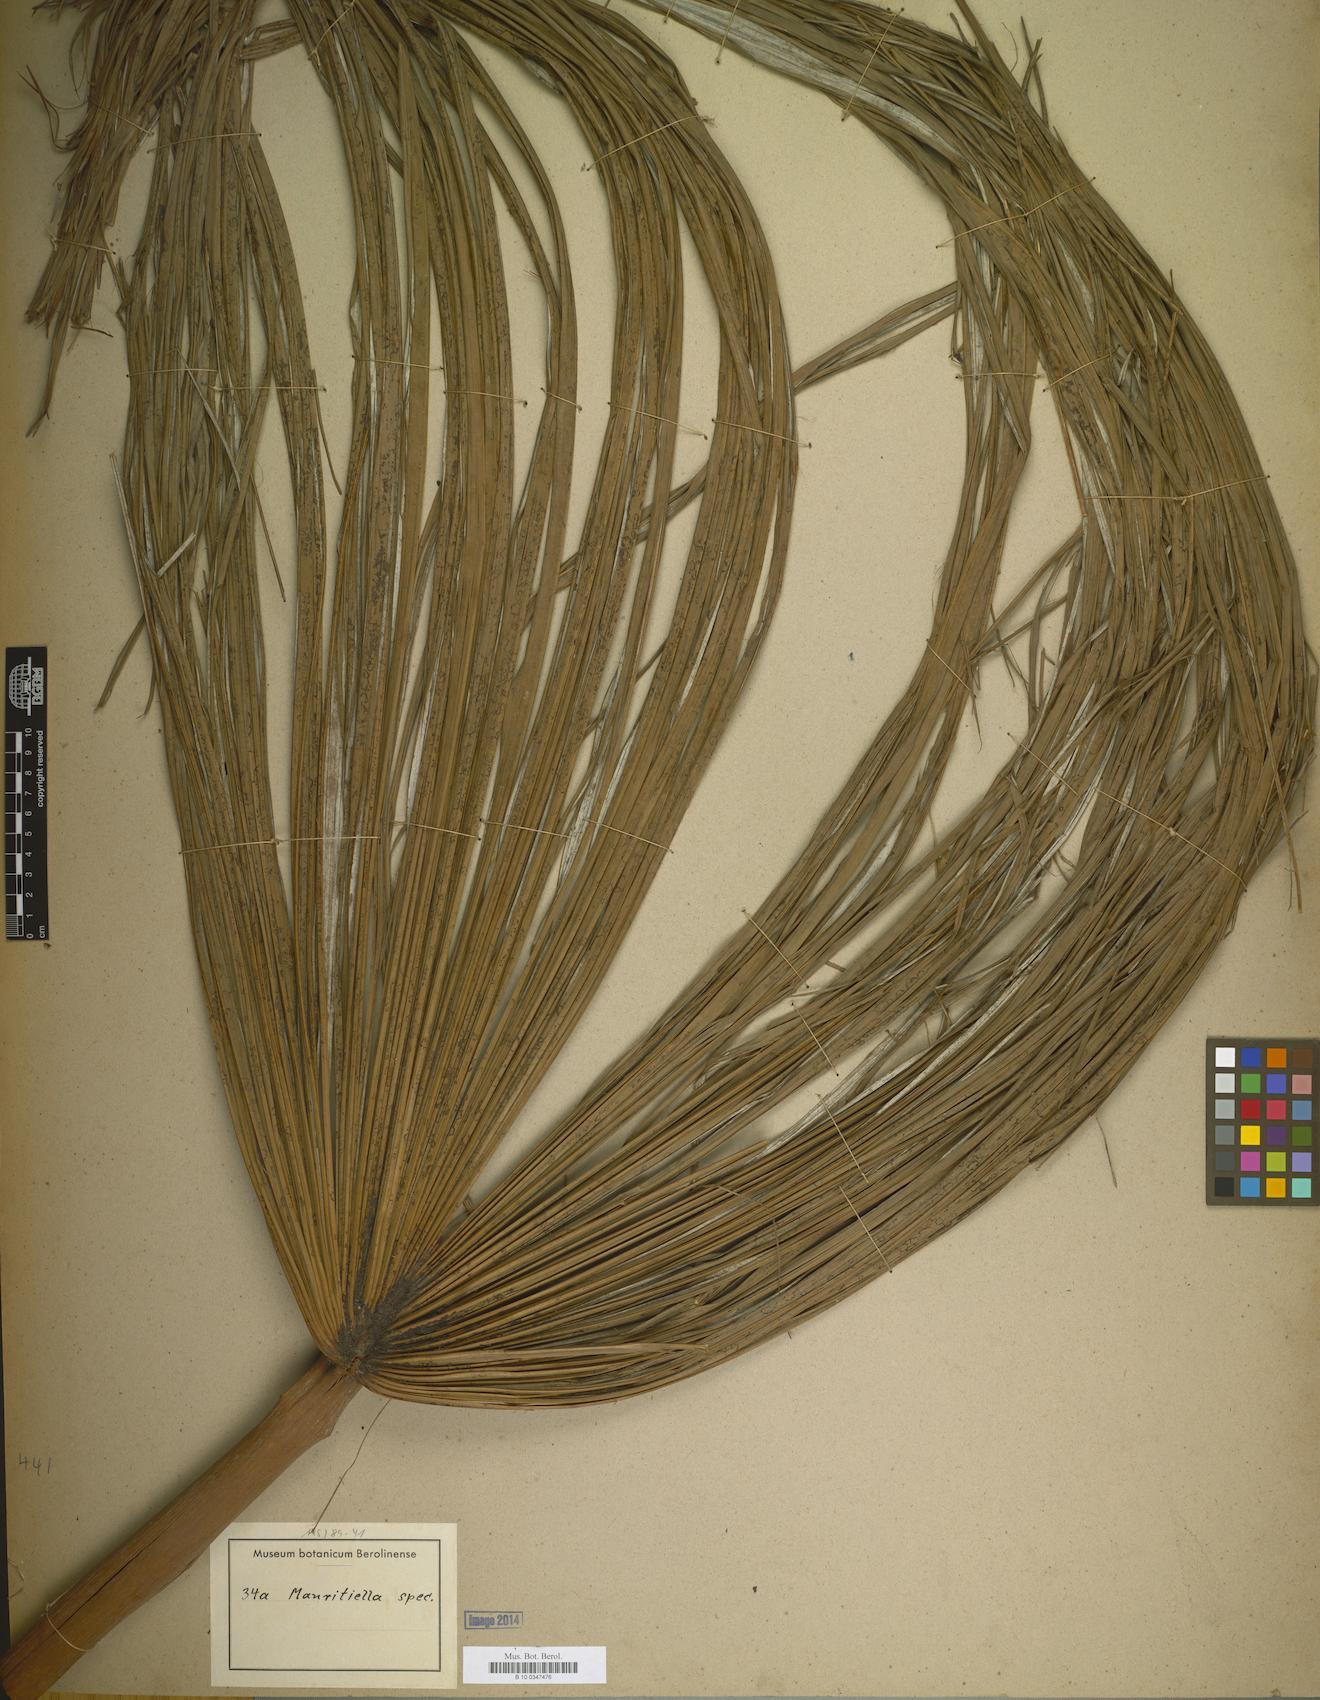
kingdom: Plantae
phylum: Tracheophyta
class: Liliopsida
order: Arecales
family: Arecaceae
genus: Mauritiella
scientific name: Mauritiella
